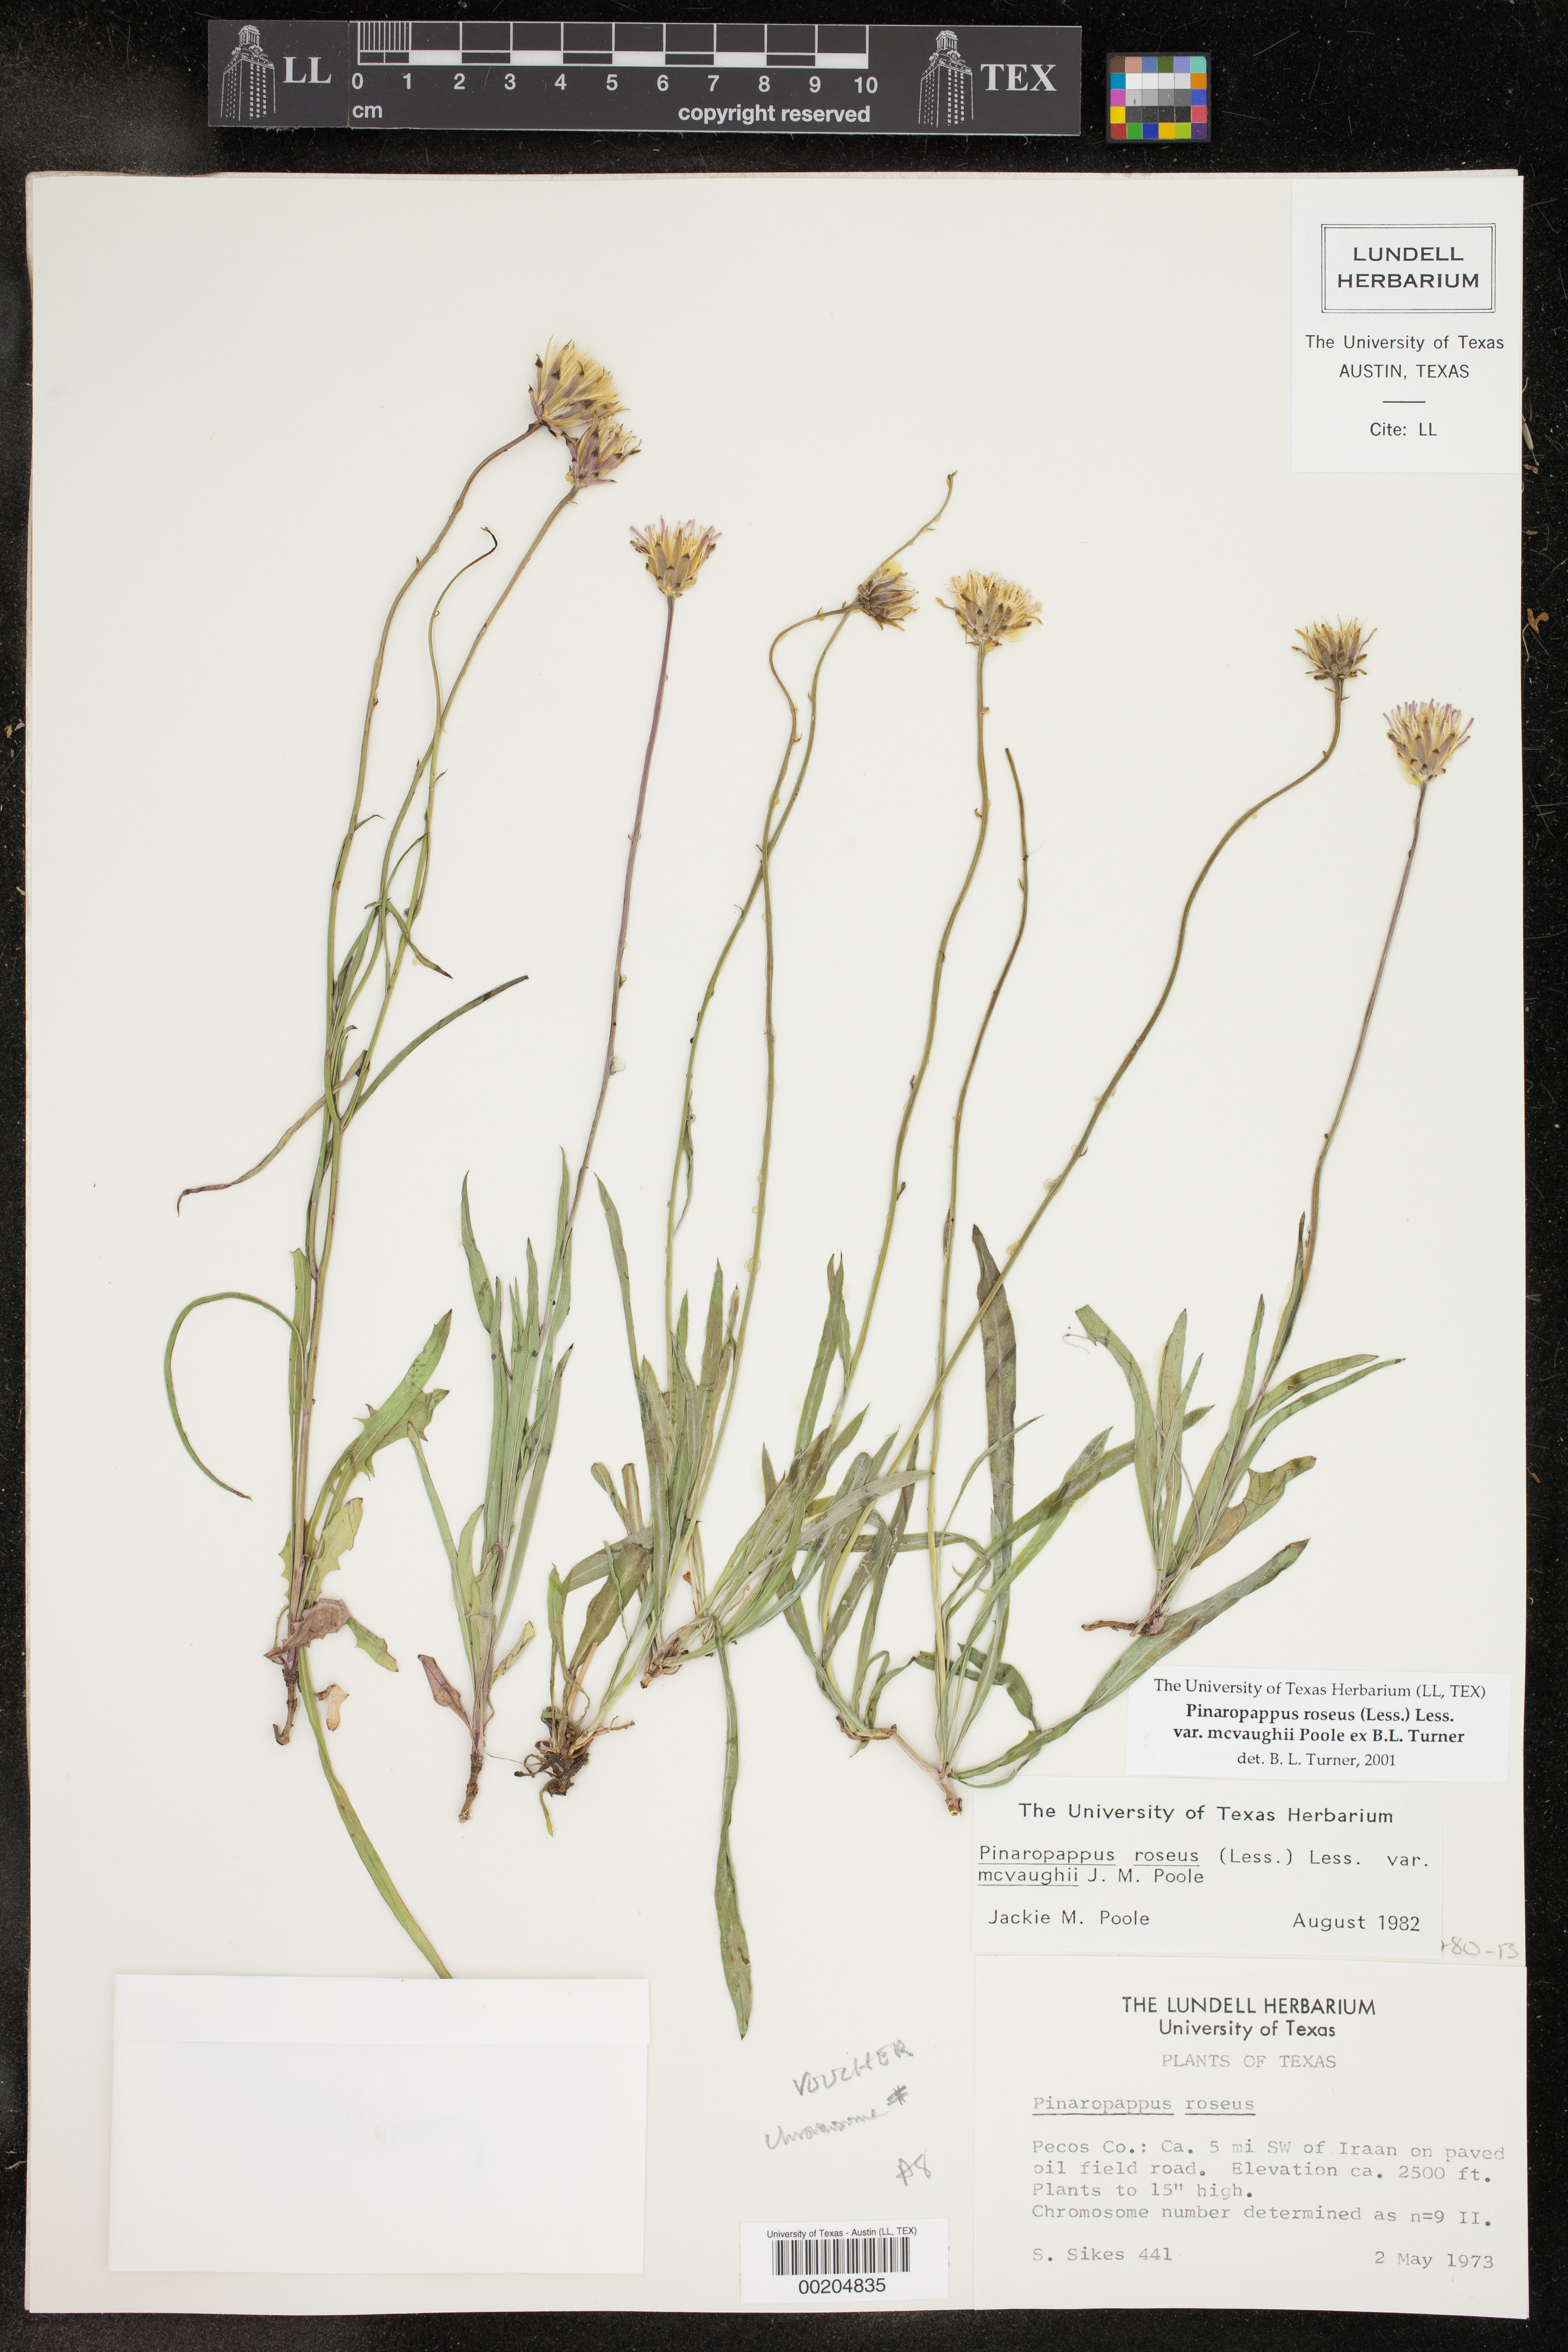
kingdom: Plantae
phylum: Tracheophyta
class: Magnoliopsida
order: Asterales
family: Asteraceae
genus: Pinaropappus
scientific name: Pinaropappus roseus
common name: Rock-lettuce
